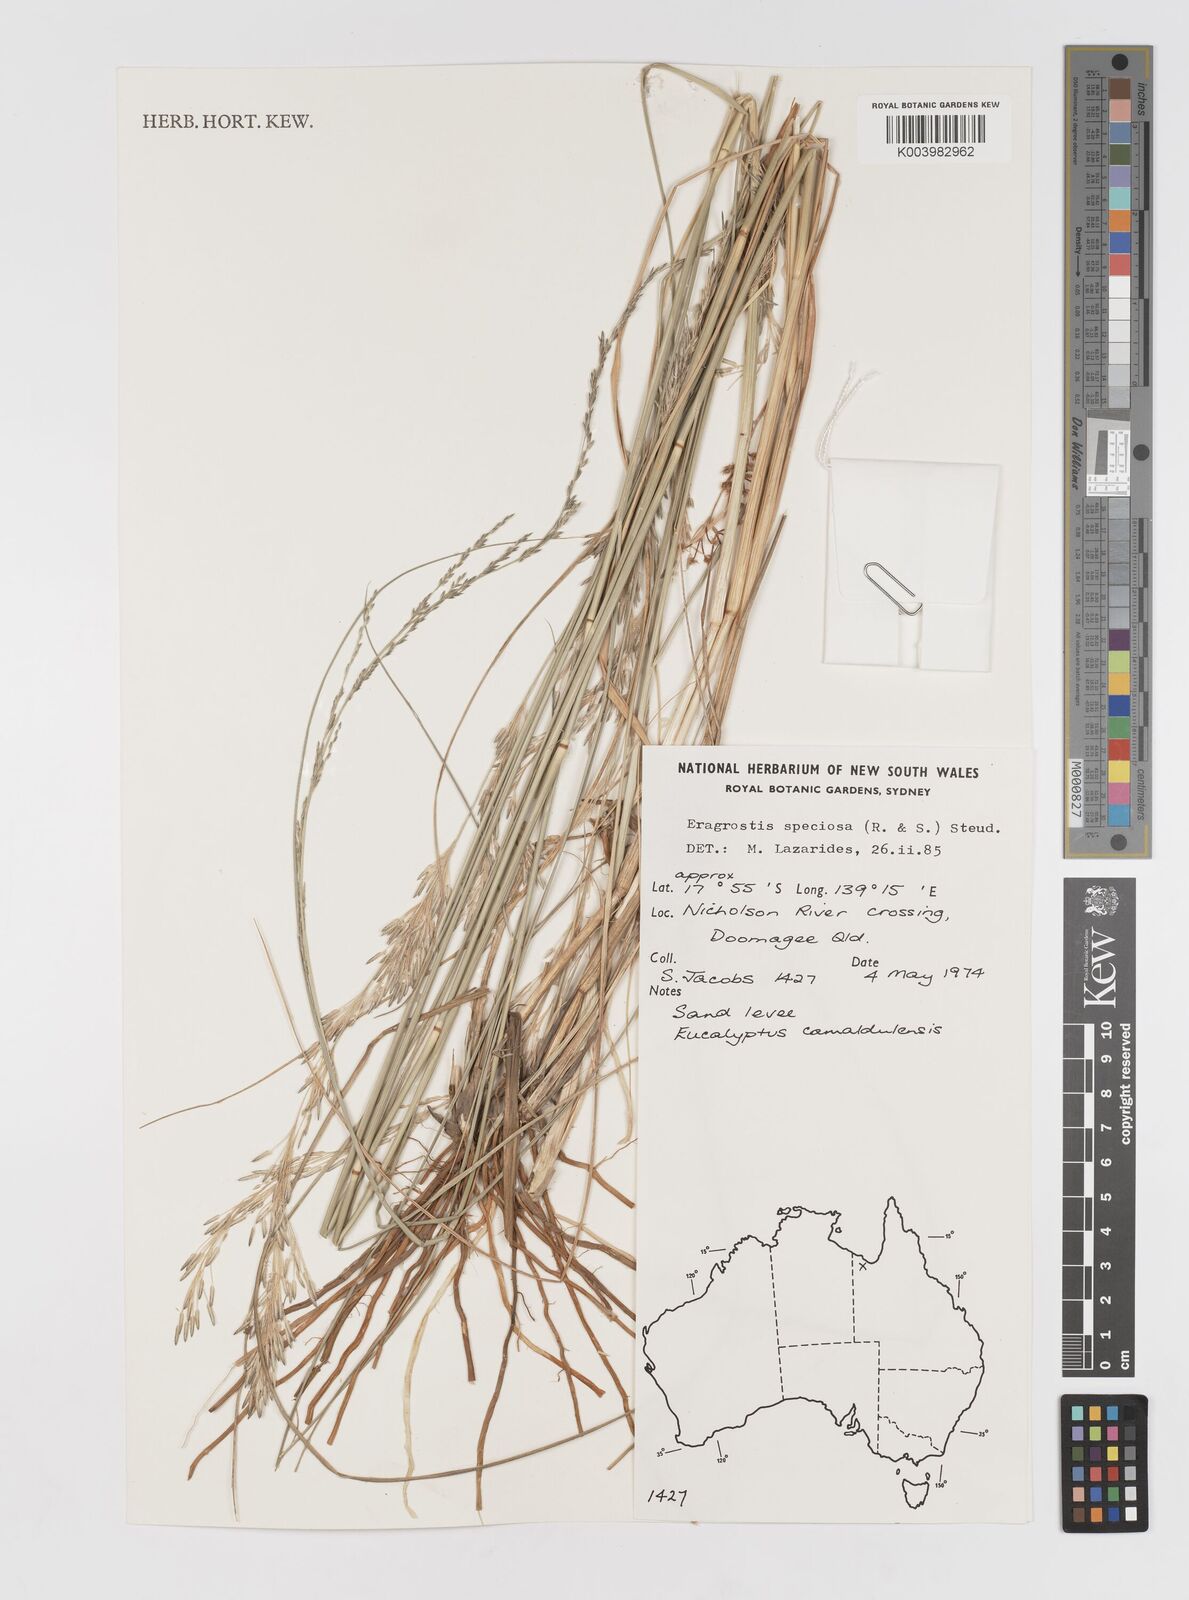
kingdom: Plantae
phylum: Tracheophyta
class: Liliopsida
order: Poales
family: Poaceae
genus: Eragrostis
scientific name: Eragrostis speciosa
